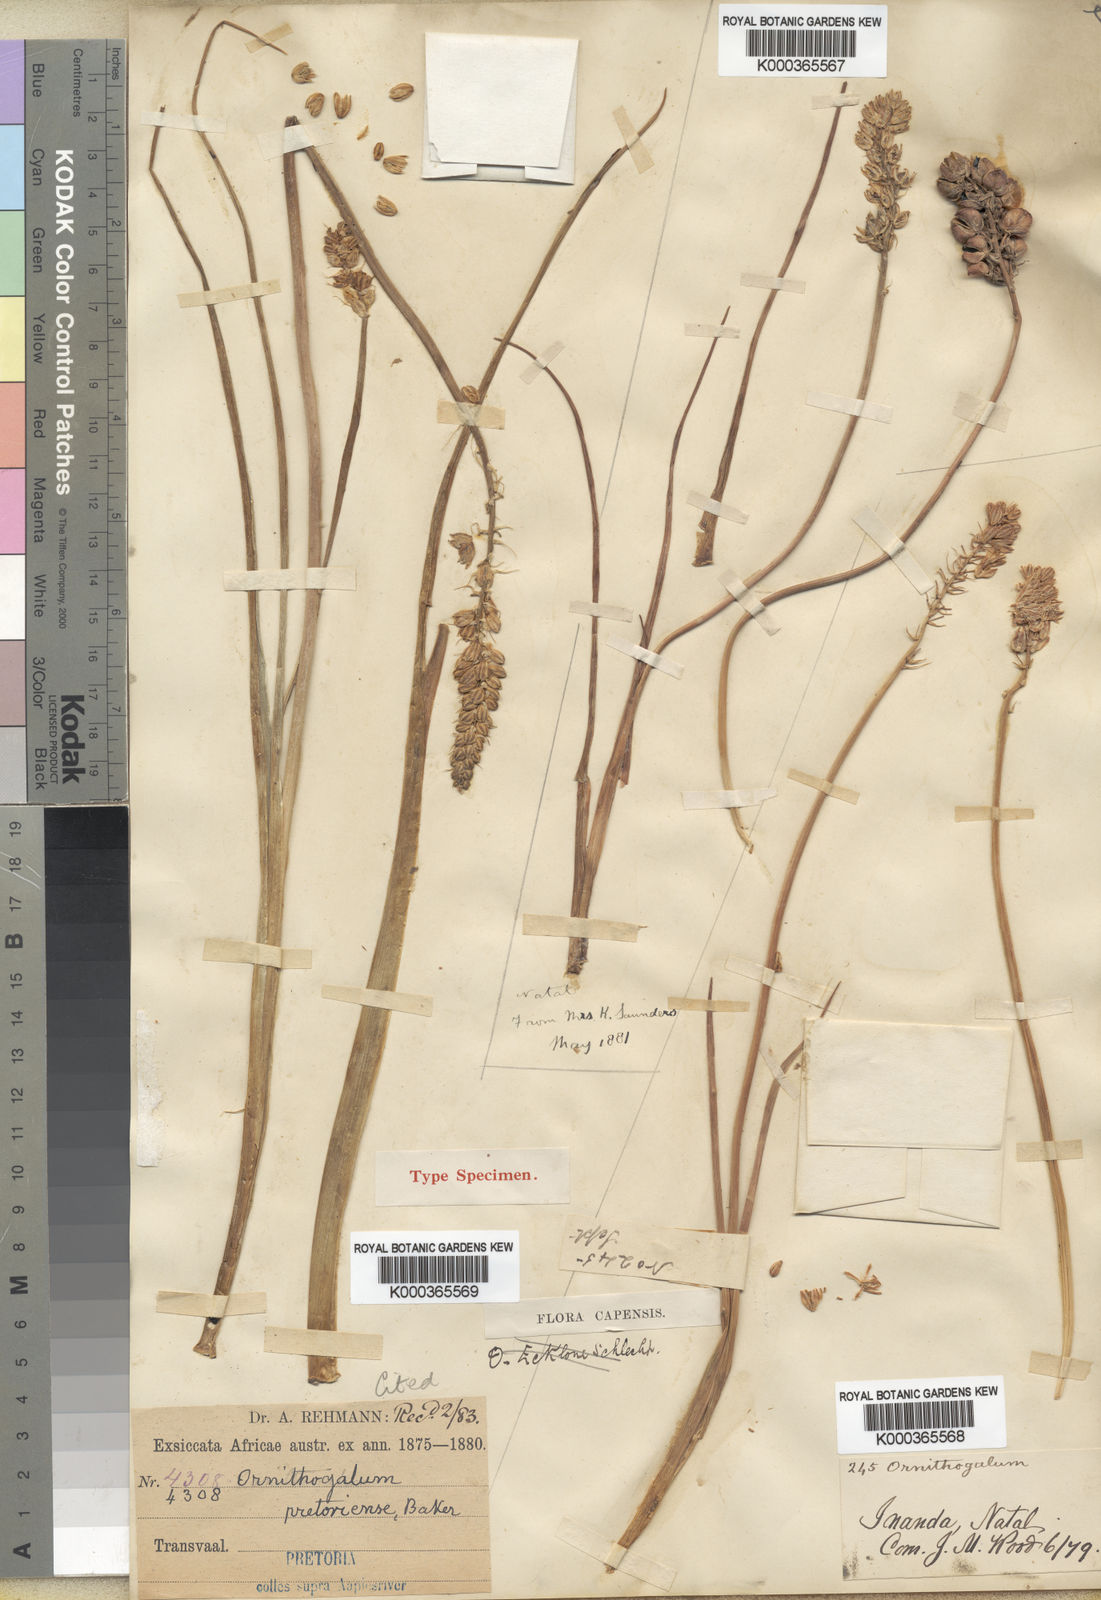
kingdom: Plantae
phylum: Tracheophyta
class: Liliopsida
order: Asparagales
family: Asparagaceae
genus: Ornithogalum
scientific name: Ornithogalum
